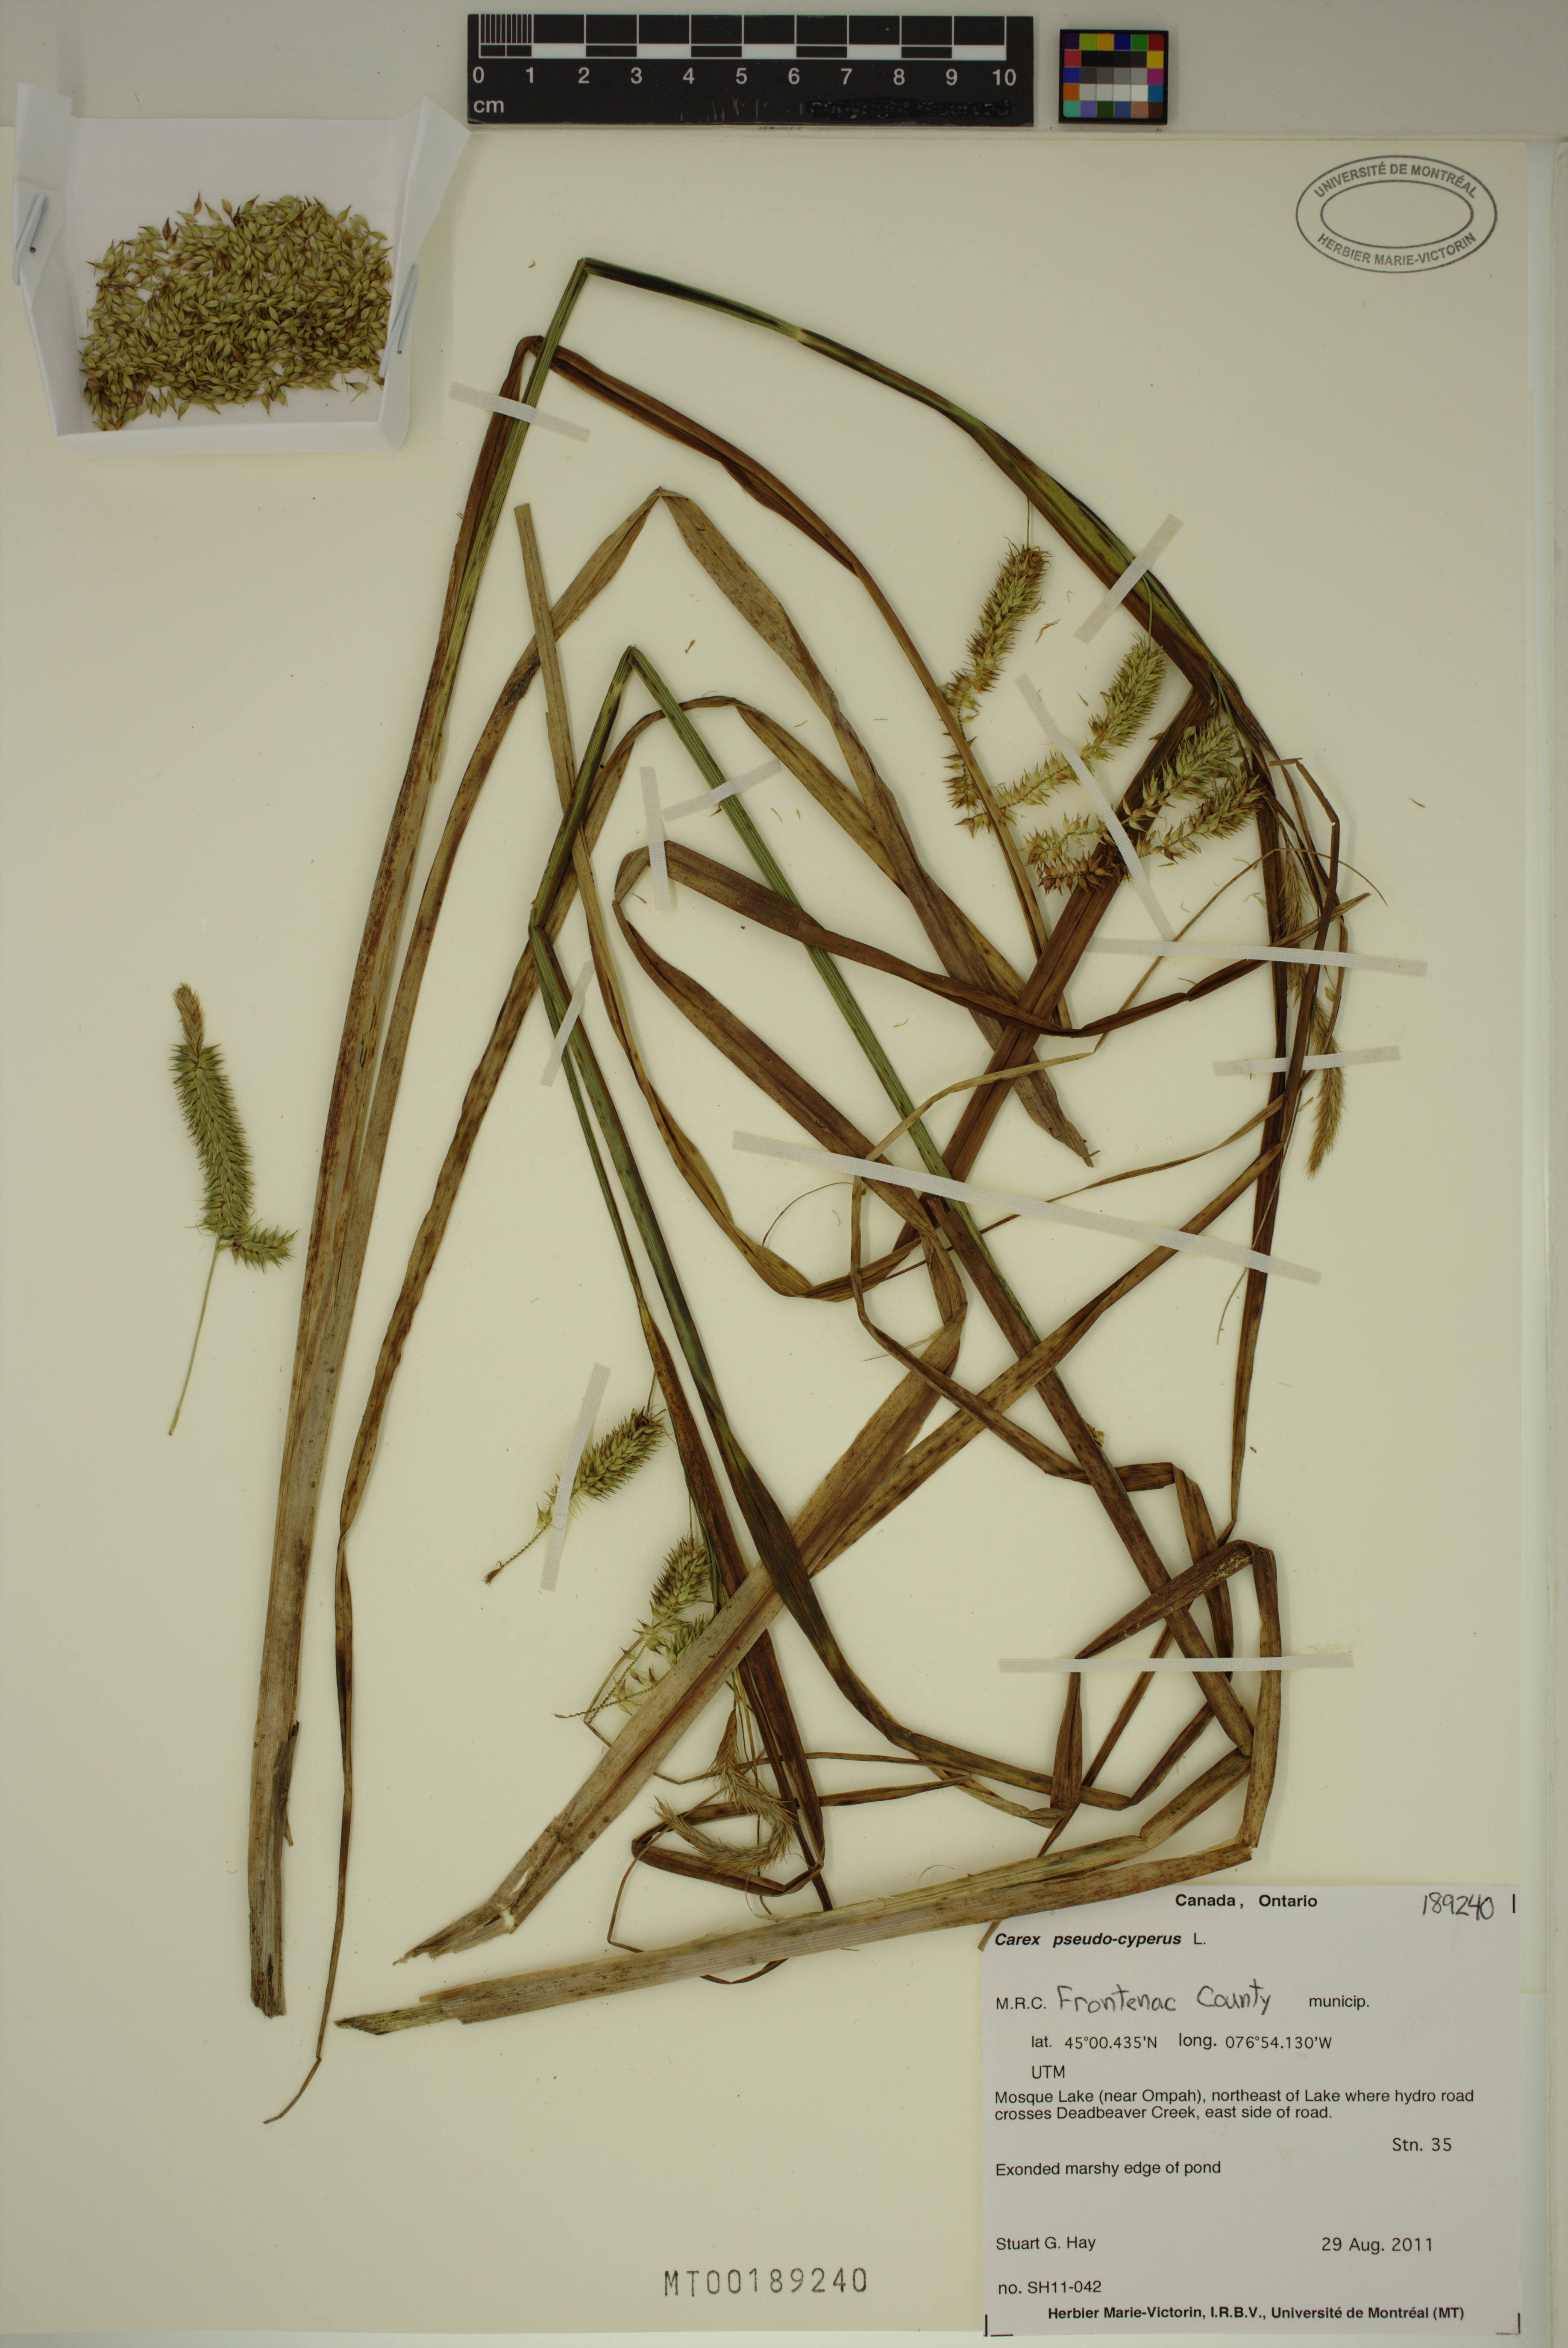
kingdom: Plantae
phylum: Tracheophyta
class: Liliopsida
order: Poales
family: Cyperaceae
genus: Carex
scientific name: Carex pseudocyperus
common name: Cyperus sedge
